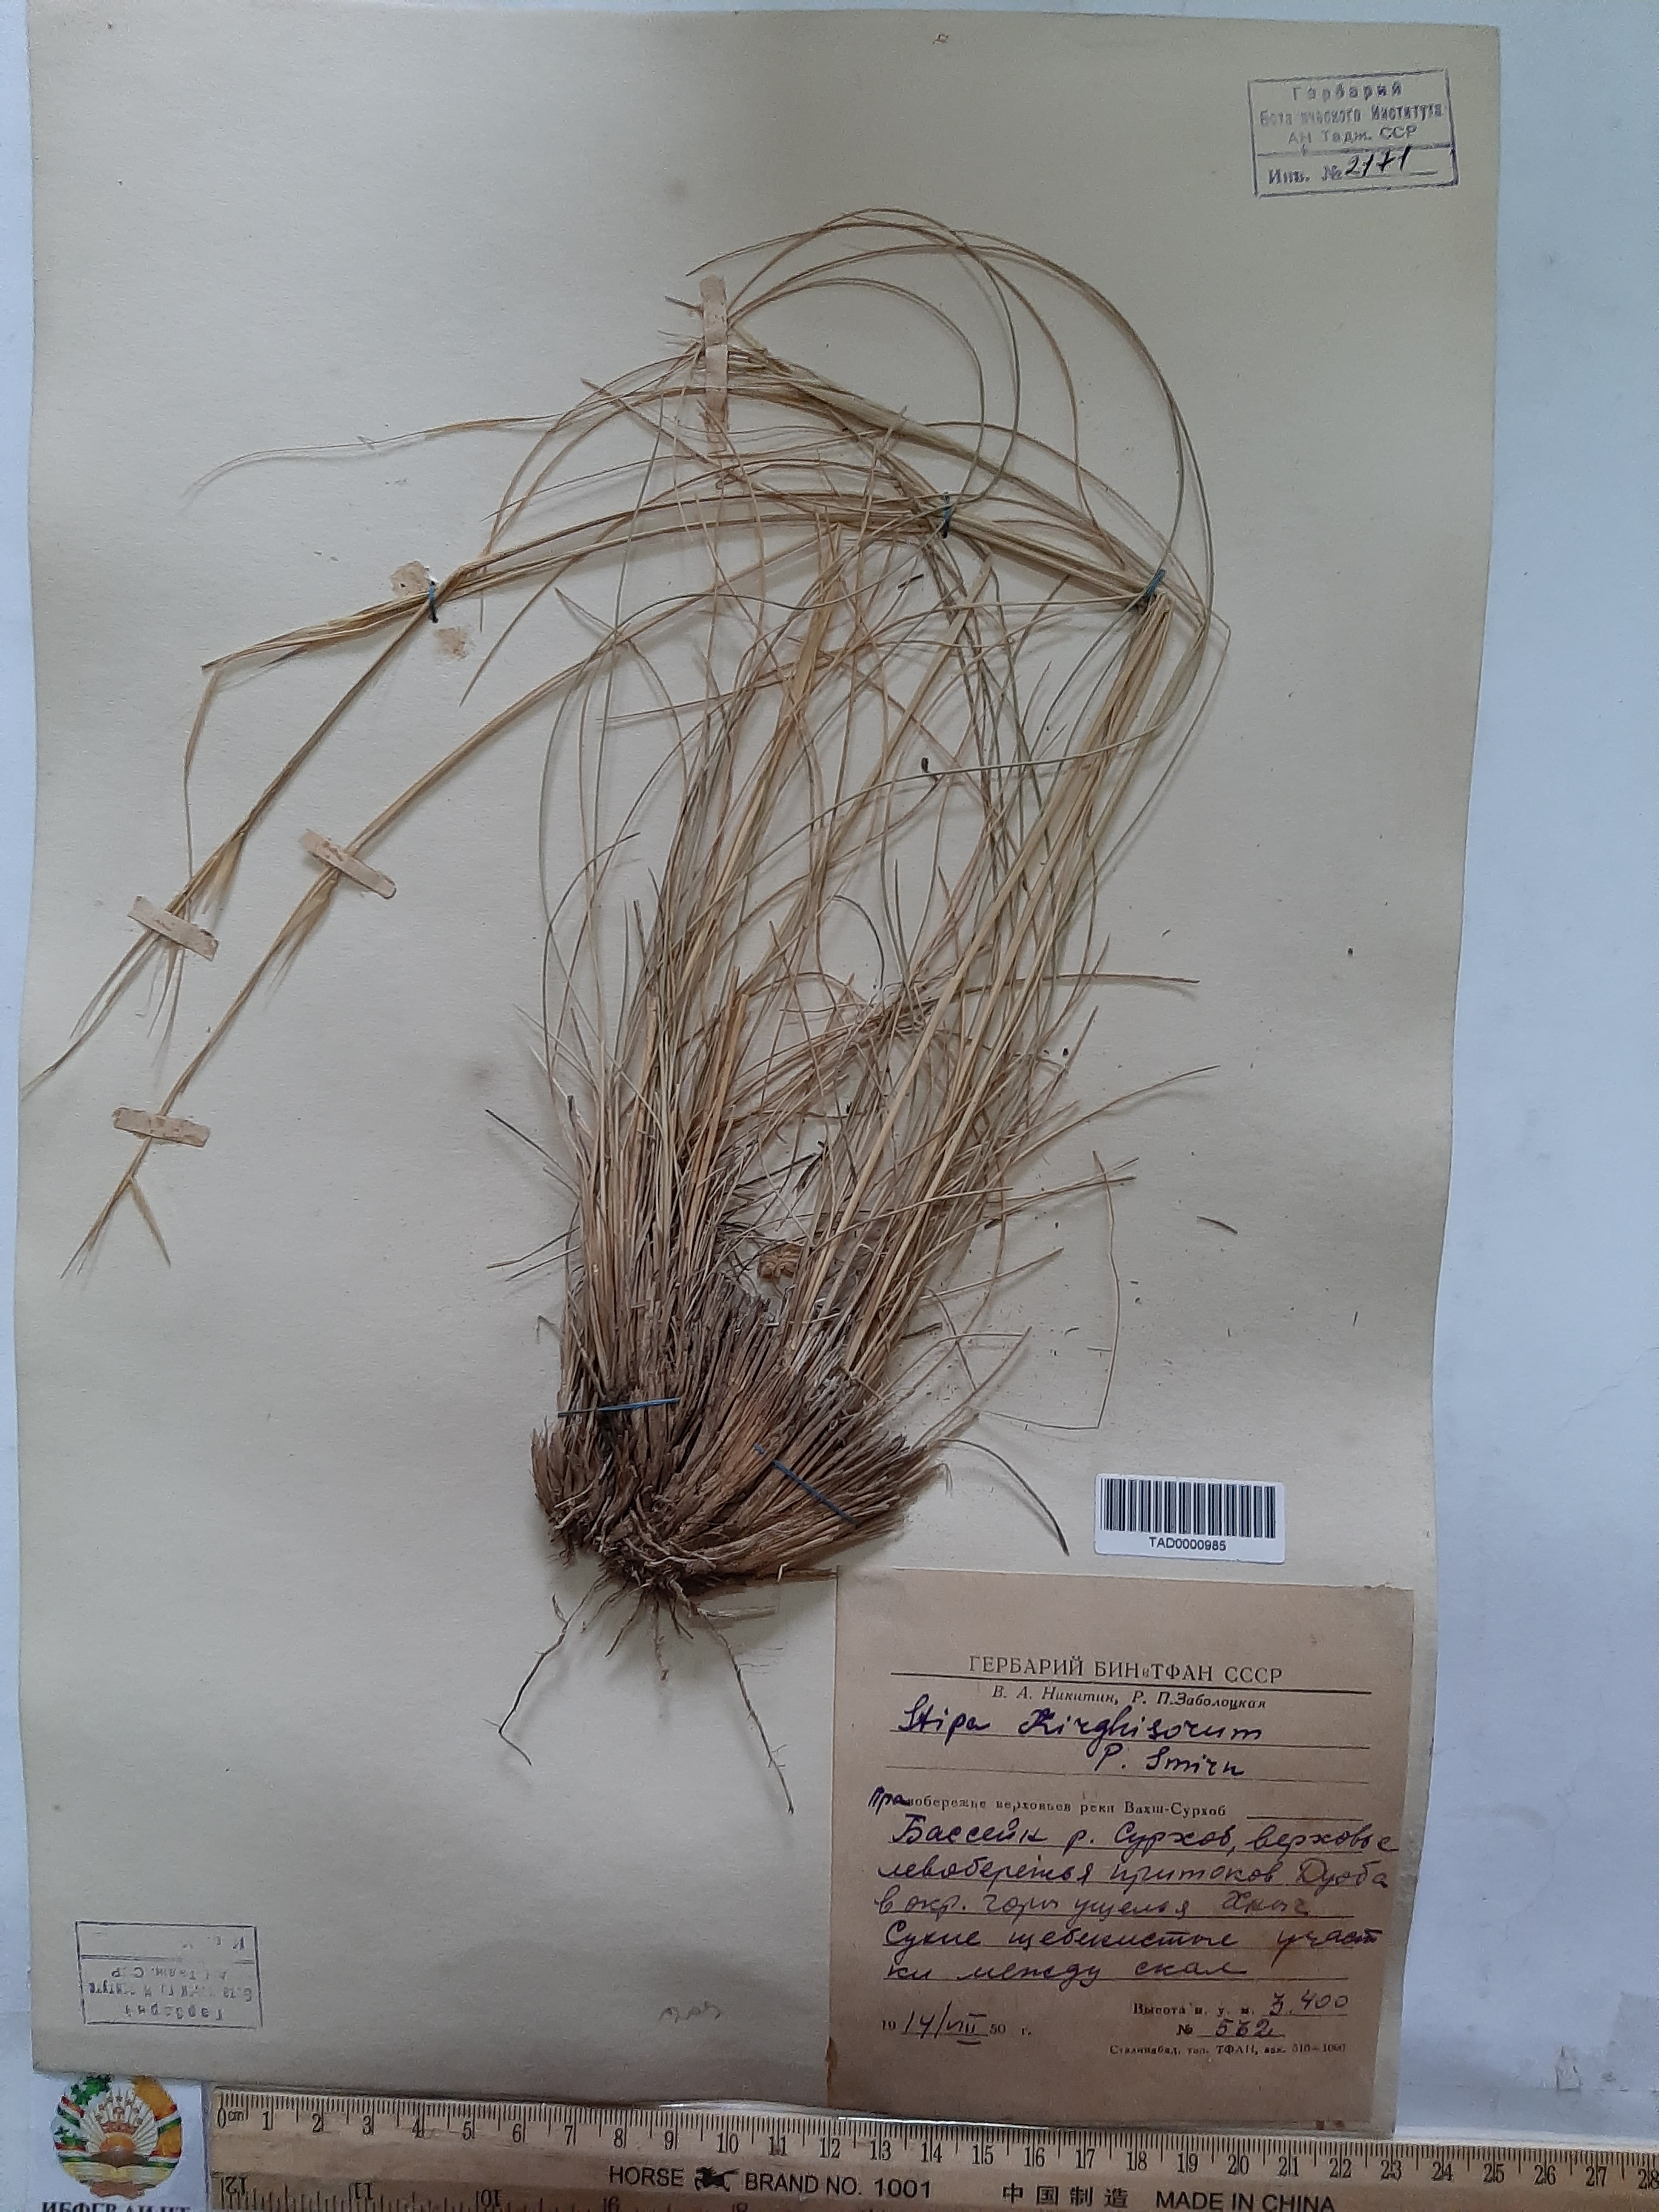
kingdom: Plantae
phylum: Tracheophyta
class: Liliopsida
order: Poales
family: Poaceae
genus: Stipa
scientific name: Stipa kirghisorum
